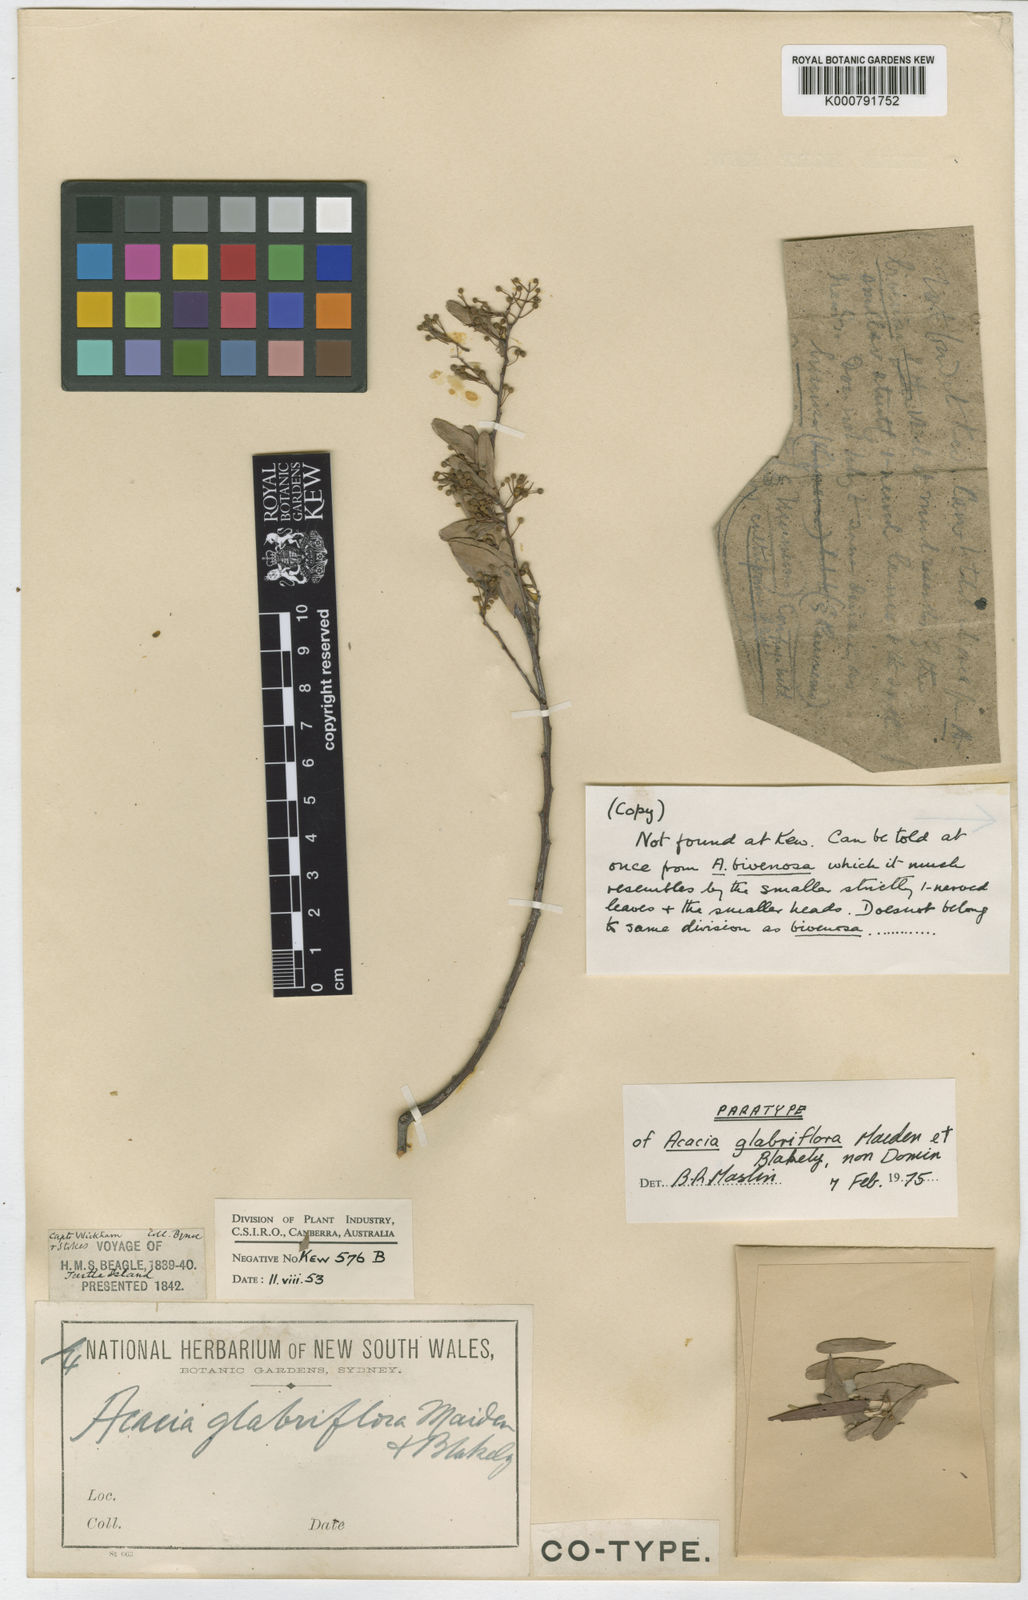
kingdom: Plantae
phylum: Tracheophyta
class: Magnoliopsida
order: Fabales
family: Fabaceae
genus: Acacia
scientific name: Acacia glaucocaesia
